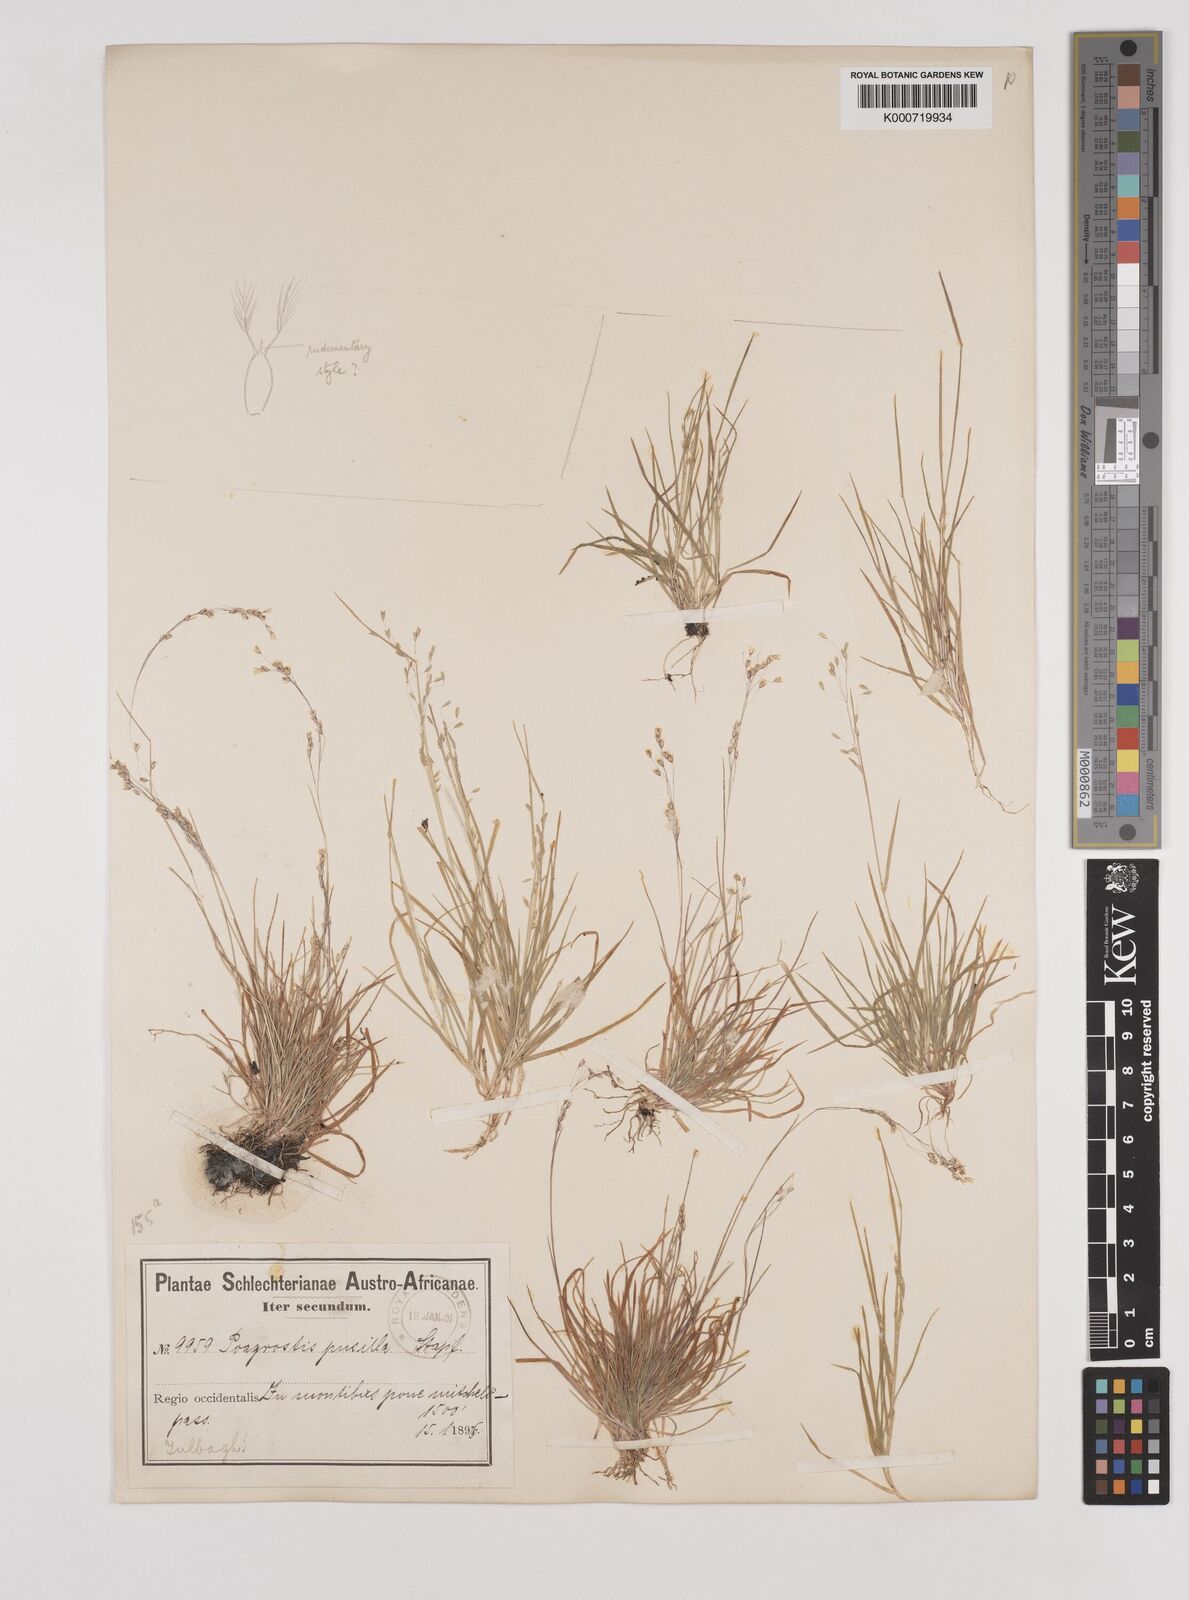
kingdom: Plantae
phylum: Tracheophyta
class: Liliopsida
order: Poales
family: Poaceae
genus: Pentameris
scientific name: Pentameris pusilla
